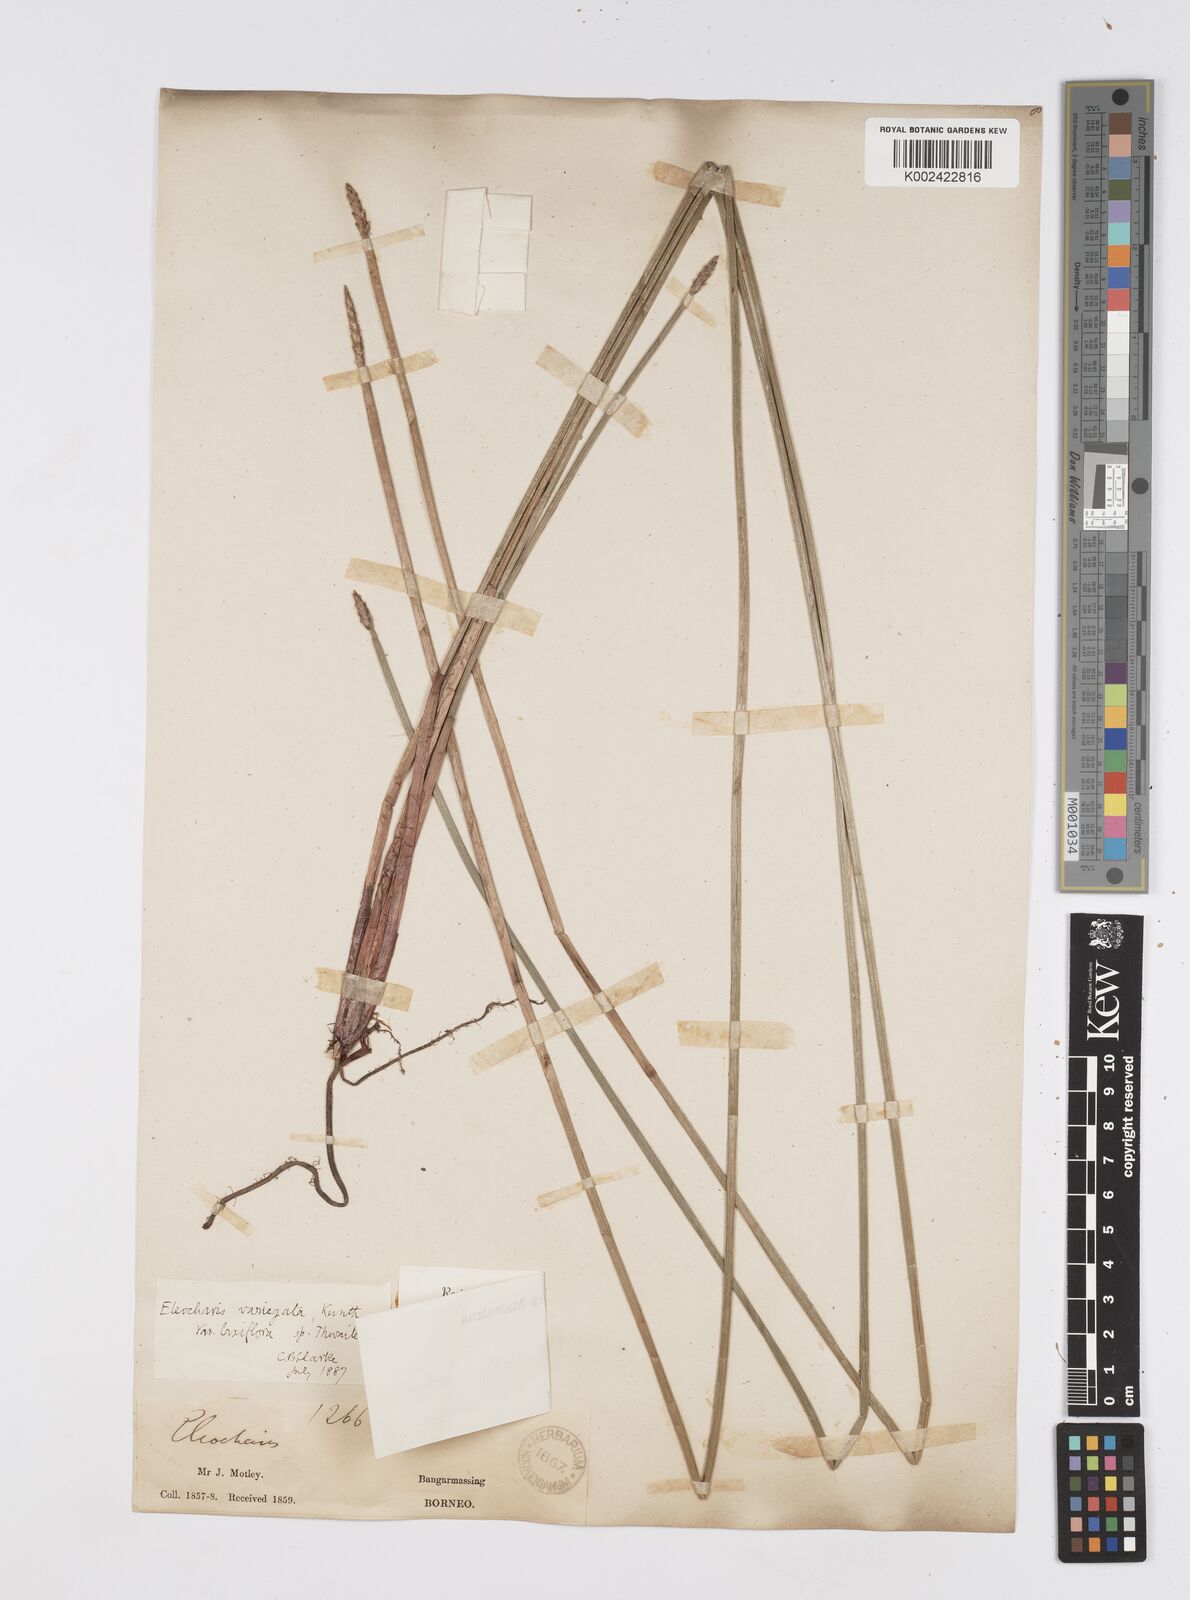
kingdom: Plantae
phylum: Tracheophyta
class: Liliopsida
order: Poales
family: Cyperaceae
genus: Eleocharis
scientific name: Eleocharis ochrostachys
